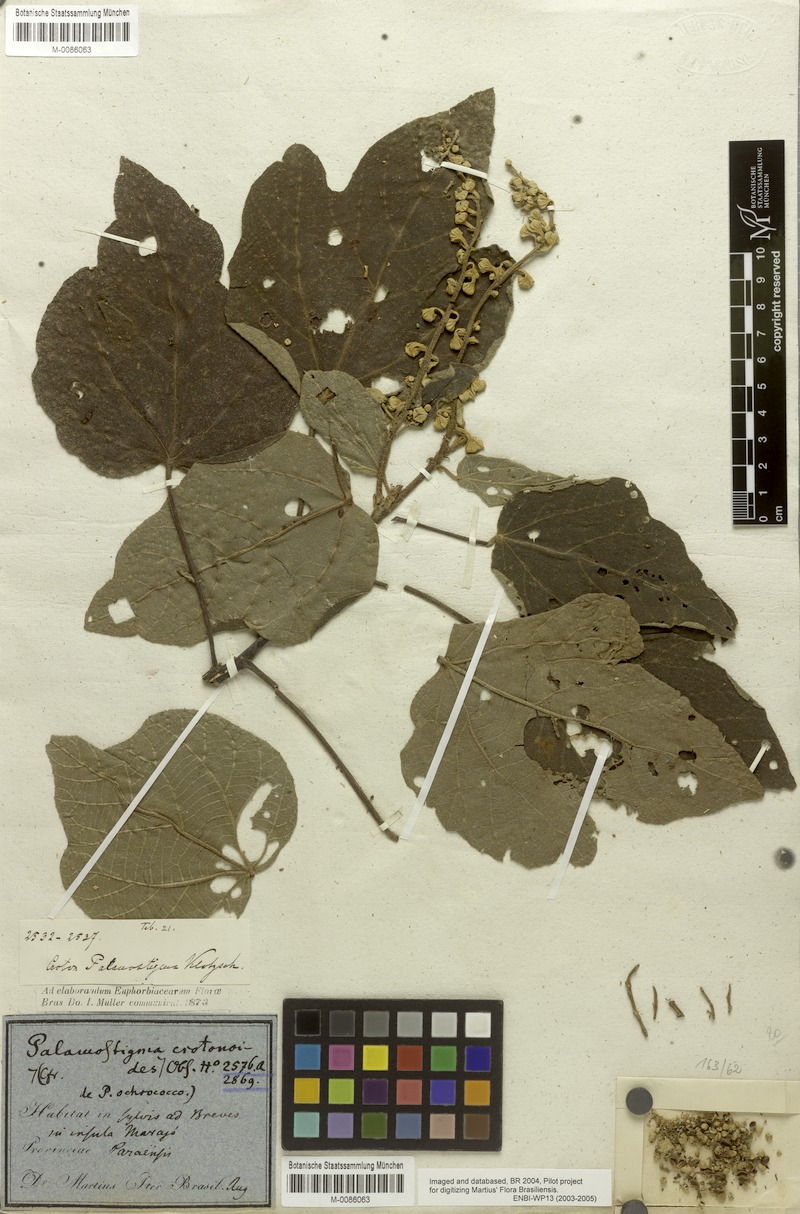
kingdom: Plantae
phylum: Tracheophyta
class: Magnoliopsida
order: Malpighiales
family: Euphorbiaceae
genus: Croton
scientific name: Croton palanostigma
